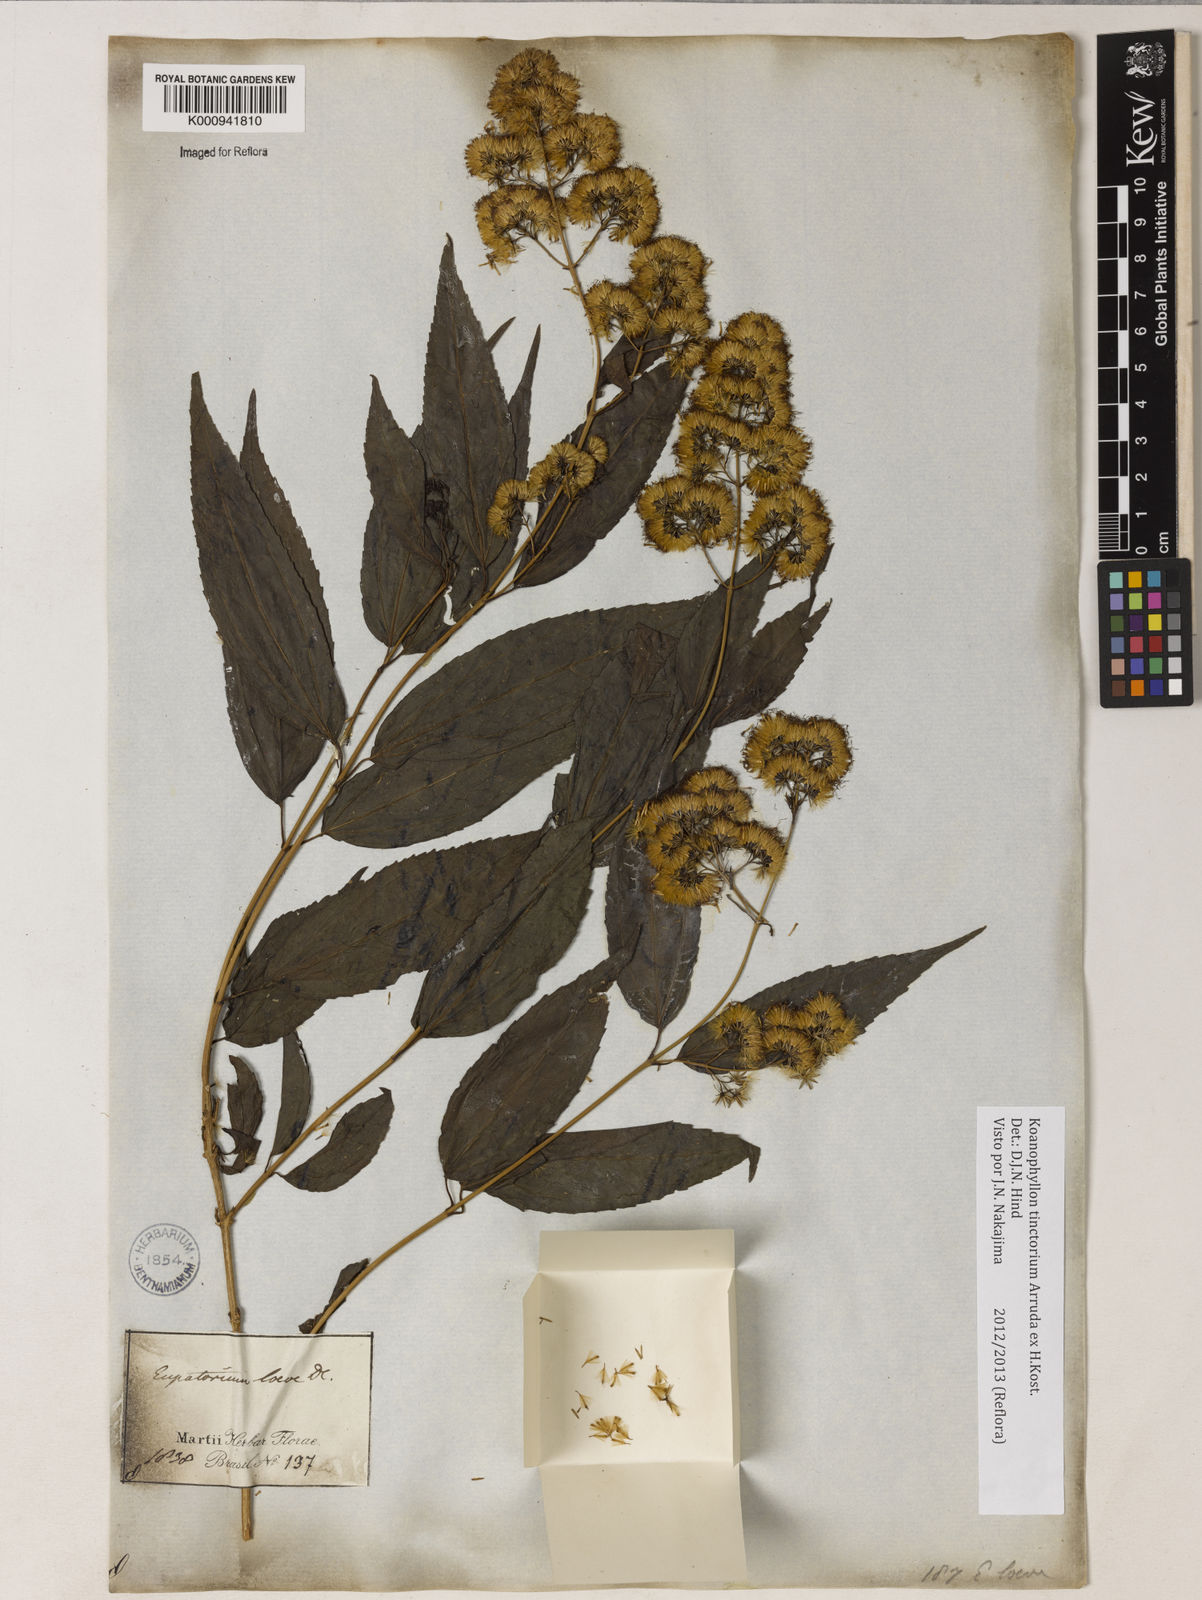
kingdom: Plantae
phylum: Tracheophyta
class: Magnoliopsida
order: Asterales
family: Asteraceae
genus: Koanophyllon
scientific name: Koanophyllon
